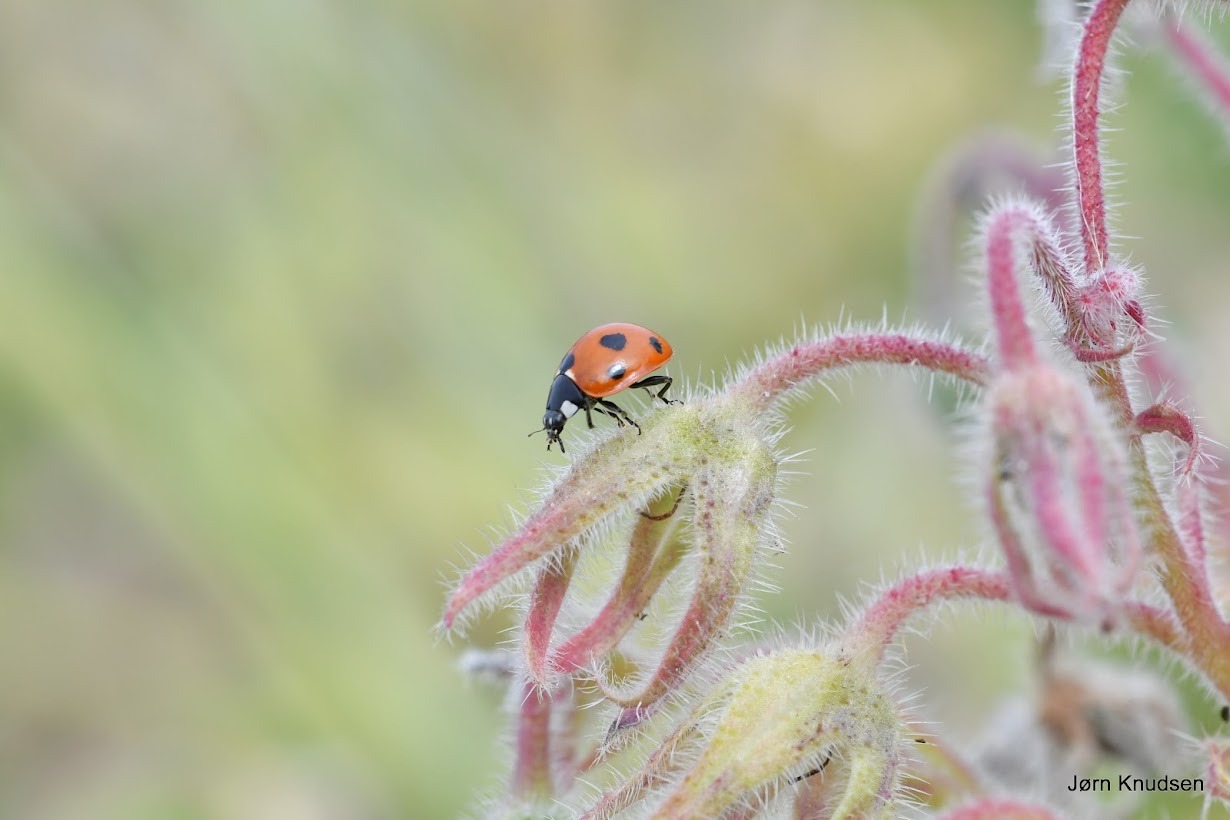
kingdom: Animalia
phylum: Arthropoda
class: Insecta
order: Coleoptera
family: Coccinellidae
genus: Coccinella
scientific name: Coccinella septempunctata
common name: Syvplettet mariehøne
